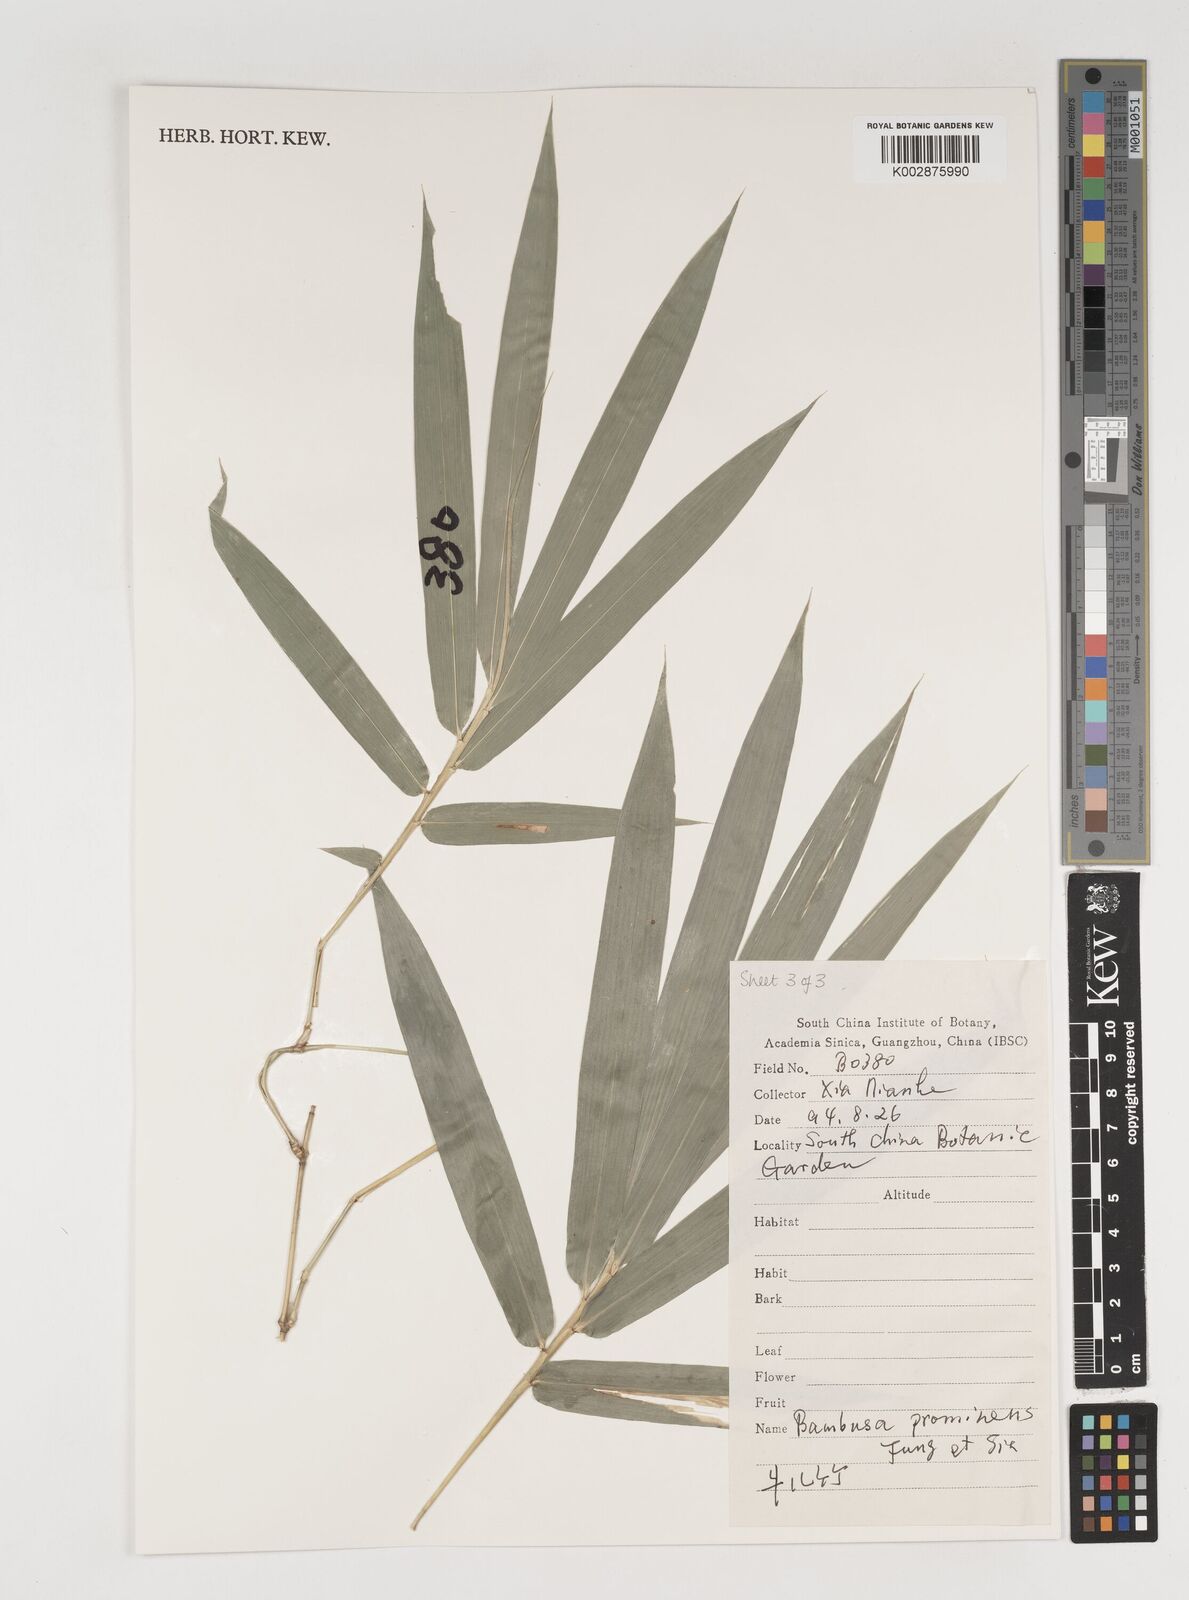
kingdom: Plantae
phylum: Tracheophyta
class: Liliopsida
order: Poales
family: Poaceae
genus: Bambusa
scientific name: Bambusa prominens
